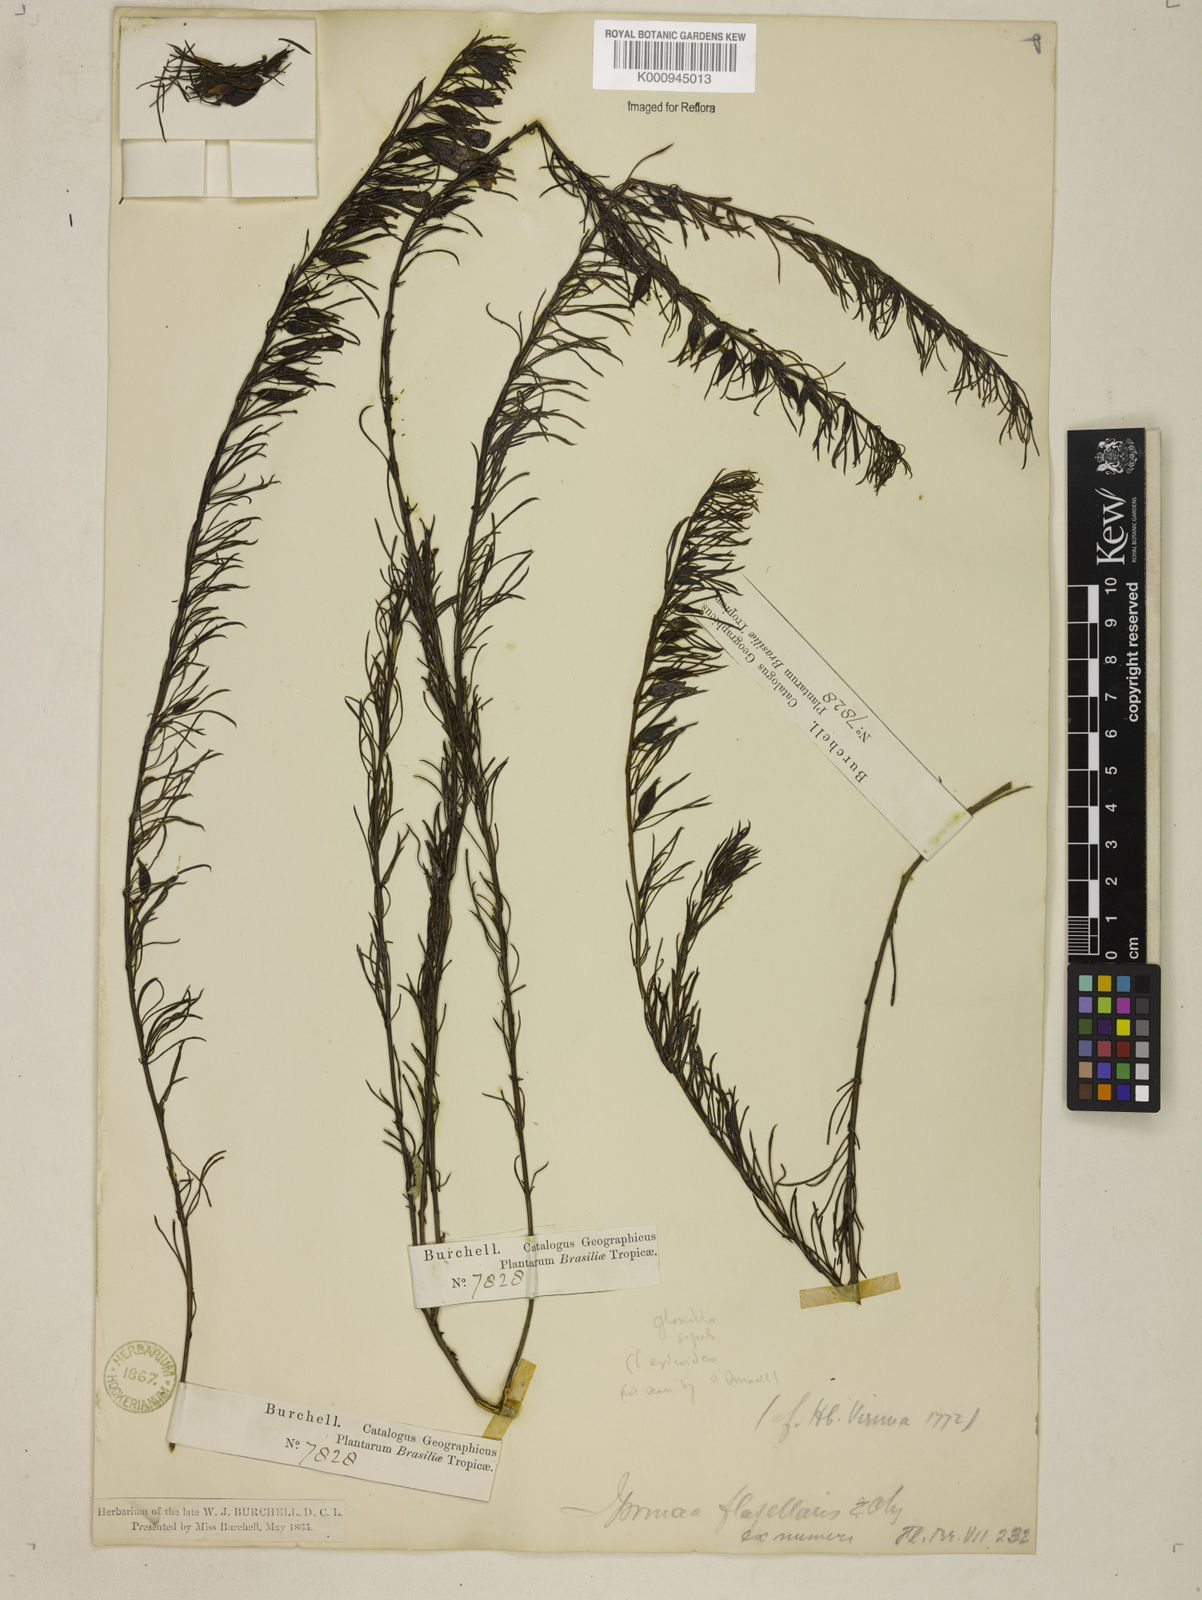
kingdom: Plantae
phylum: Tracheophyta
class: Magnoliopsida
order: Solanales
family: Convolvulaceae
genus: Distimake
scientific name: Distimake ericoides
